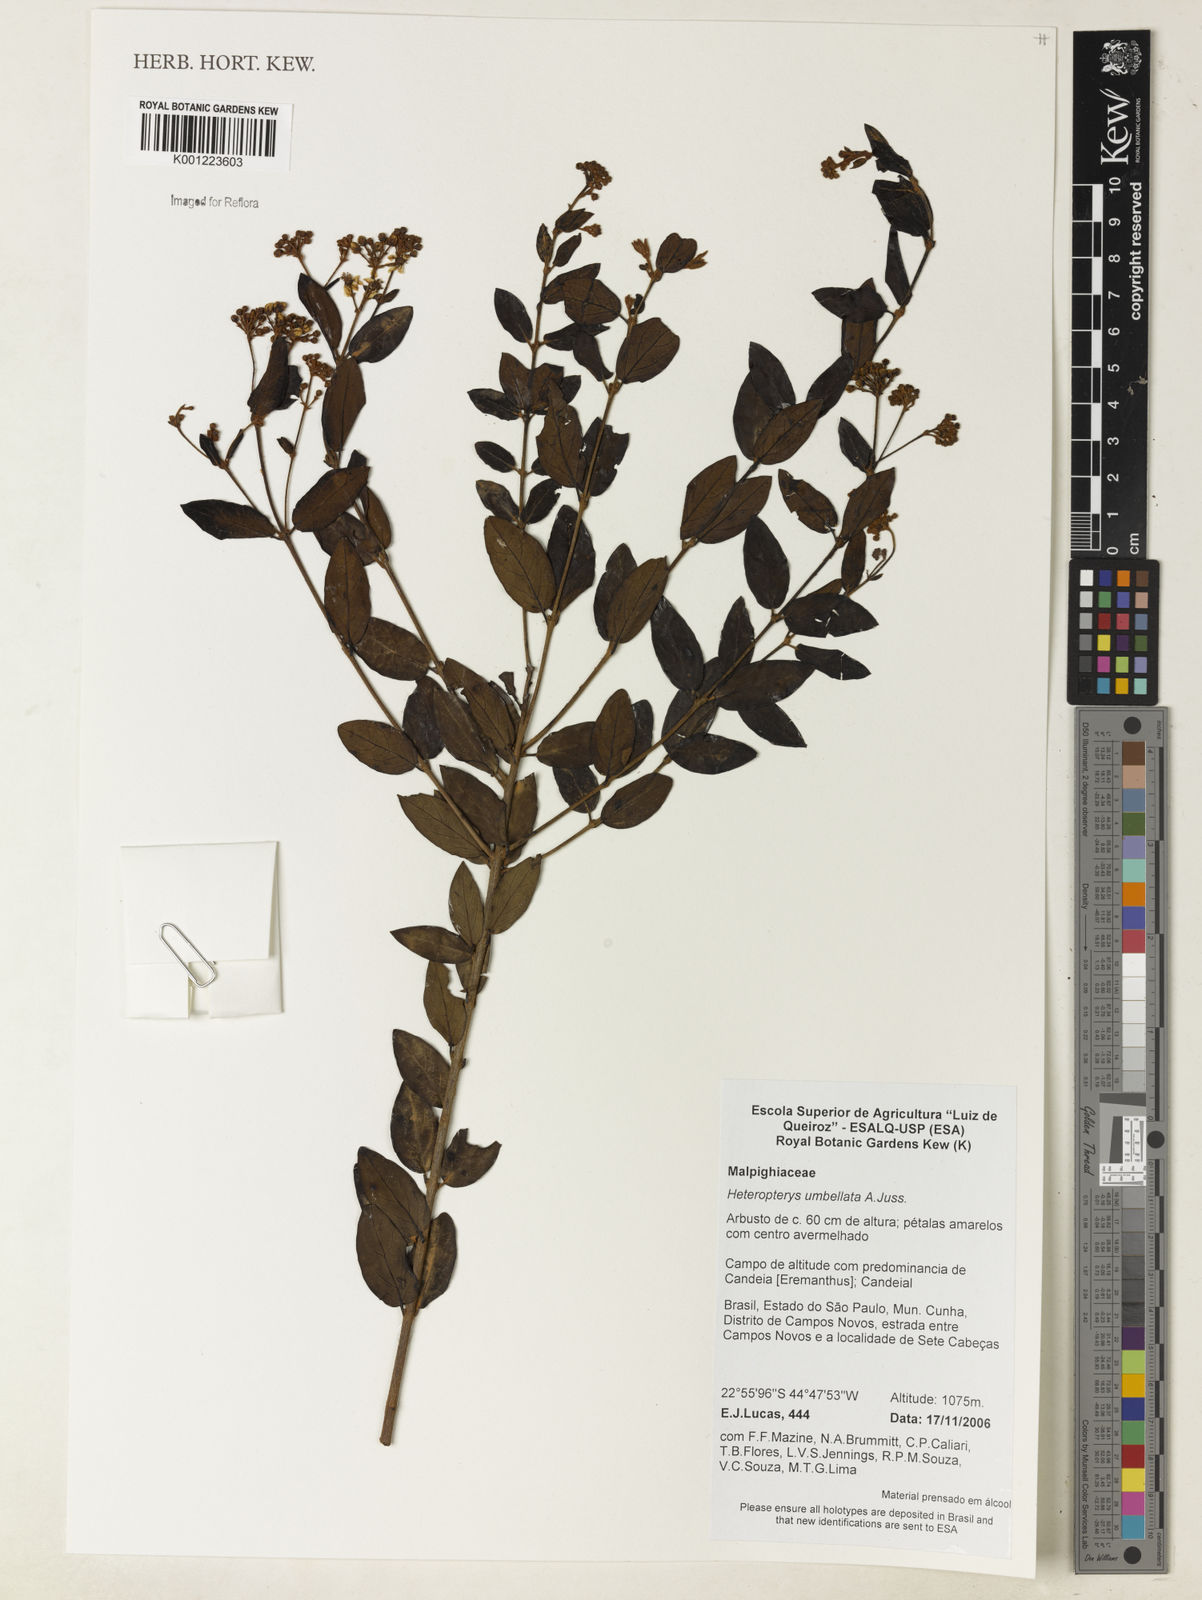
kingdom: Plantae
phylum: Tracheophyta
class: Magnoliopsida
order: Malpighiales
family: Malpighiaceae
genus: Heteropterys
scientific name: Heteropterys umbellata
